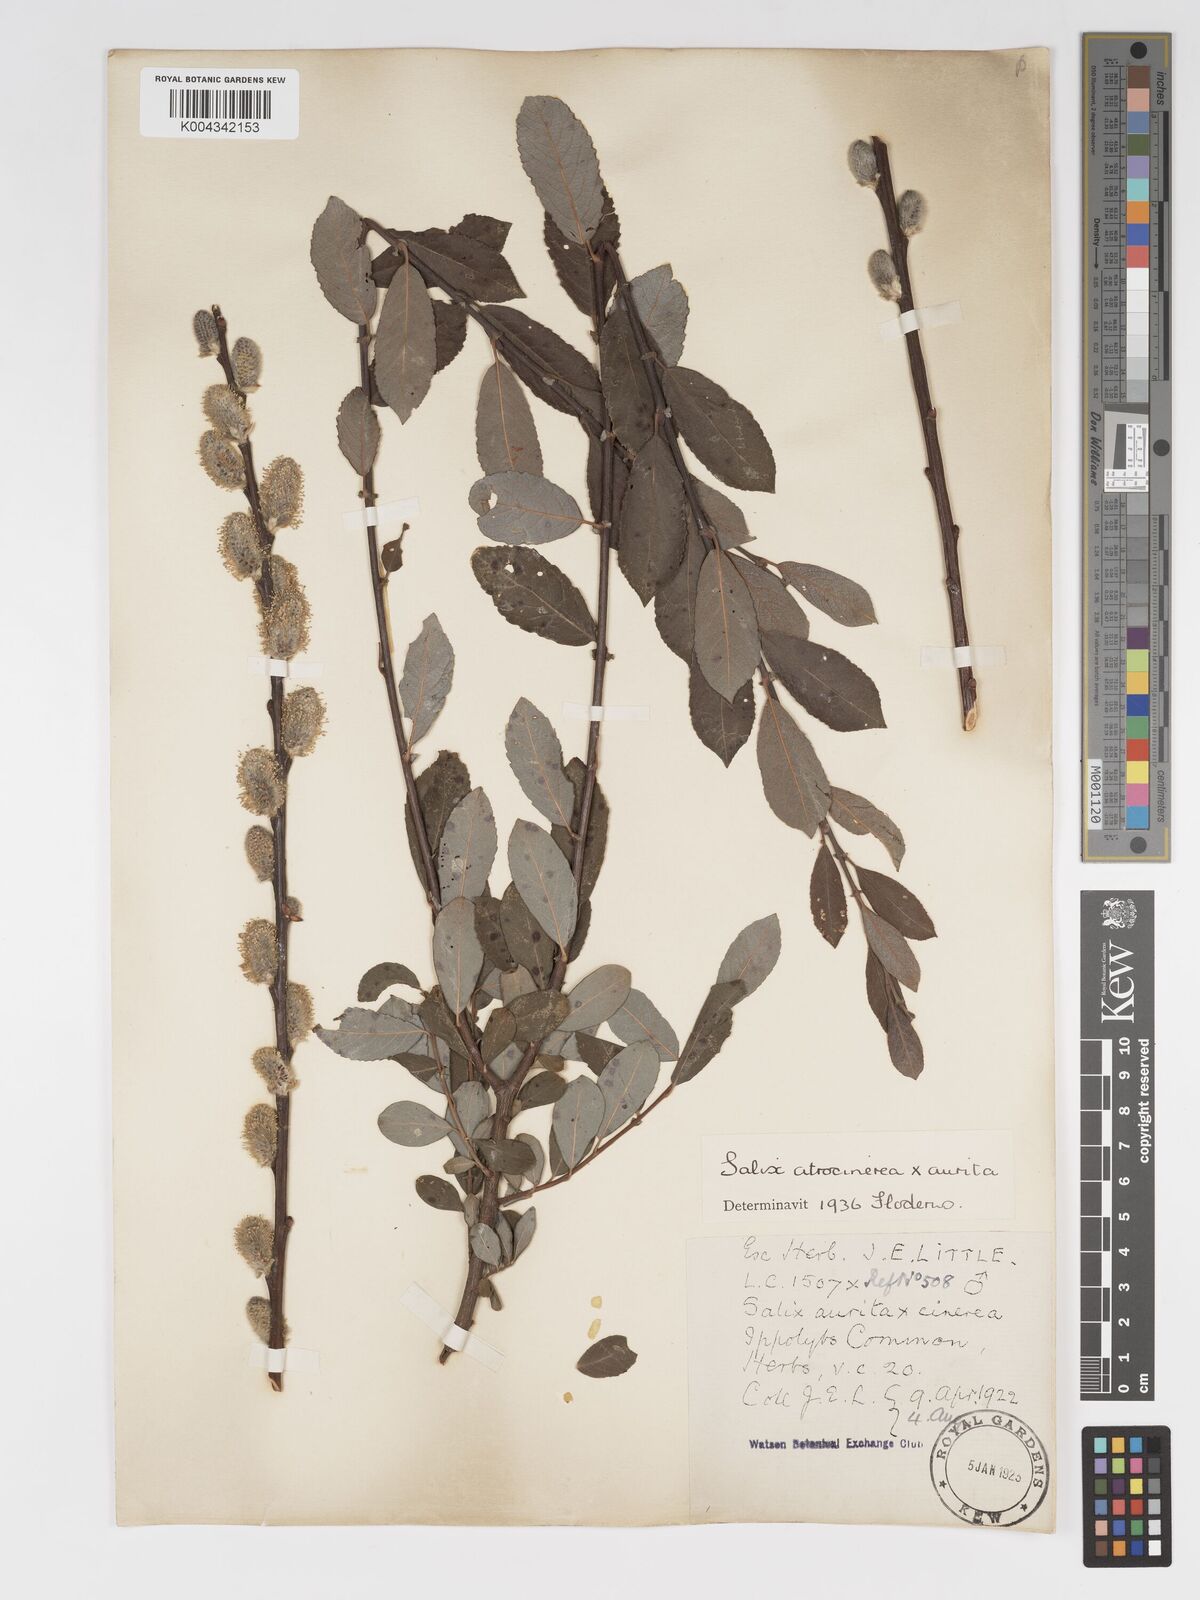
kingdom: Plantae
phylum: Tracheophyta
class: Magnoliopsida
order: Malpighiales
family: Salicaceae
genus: Salix
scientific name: Salix
